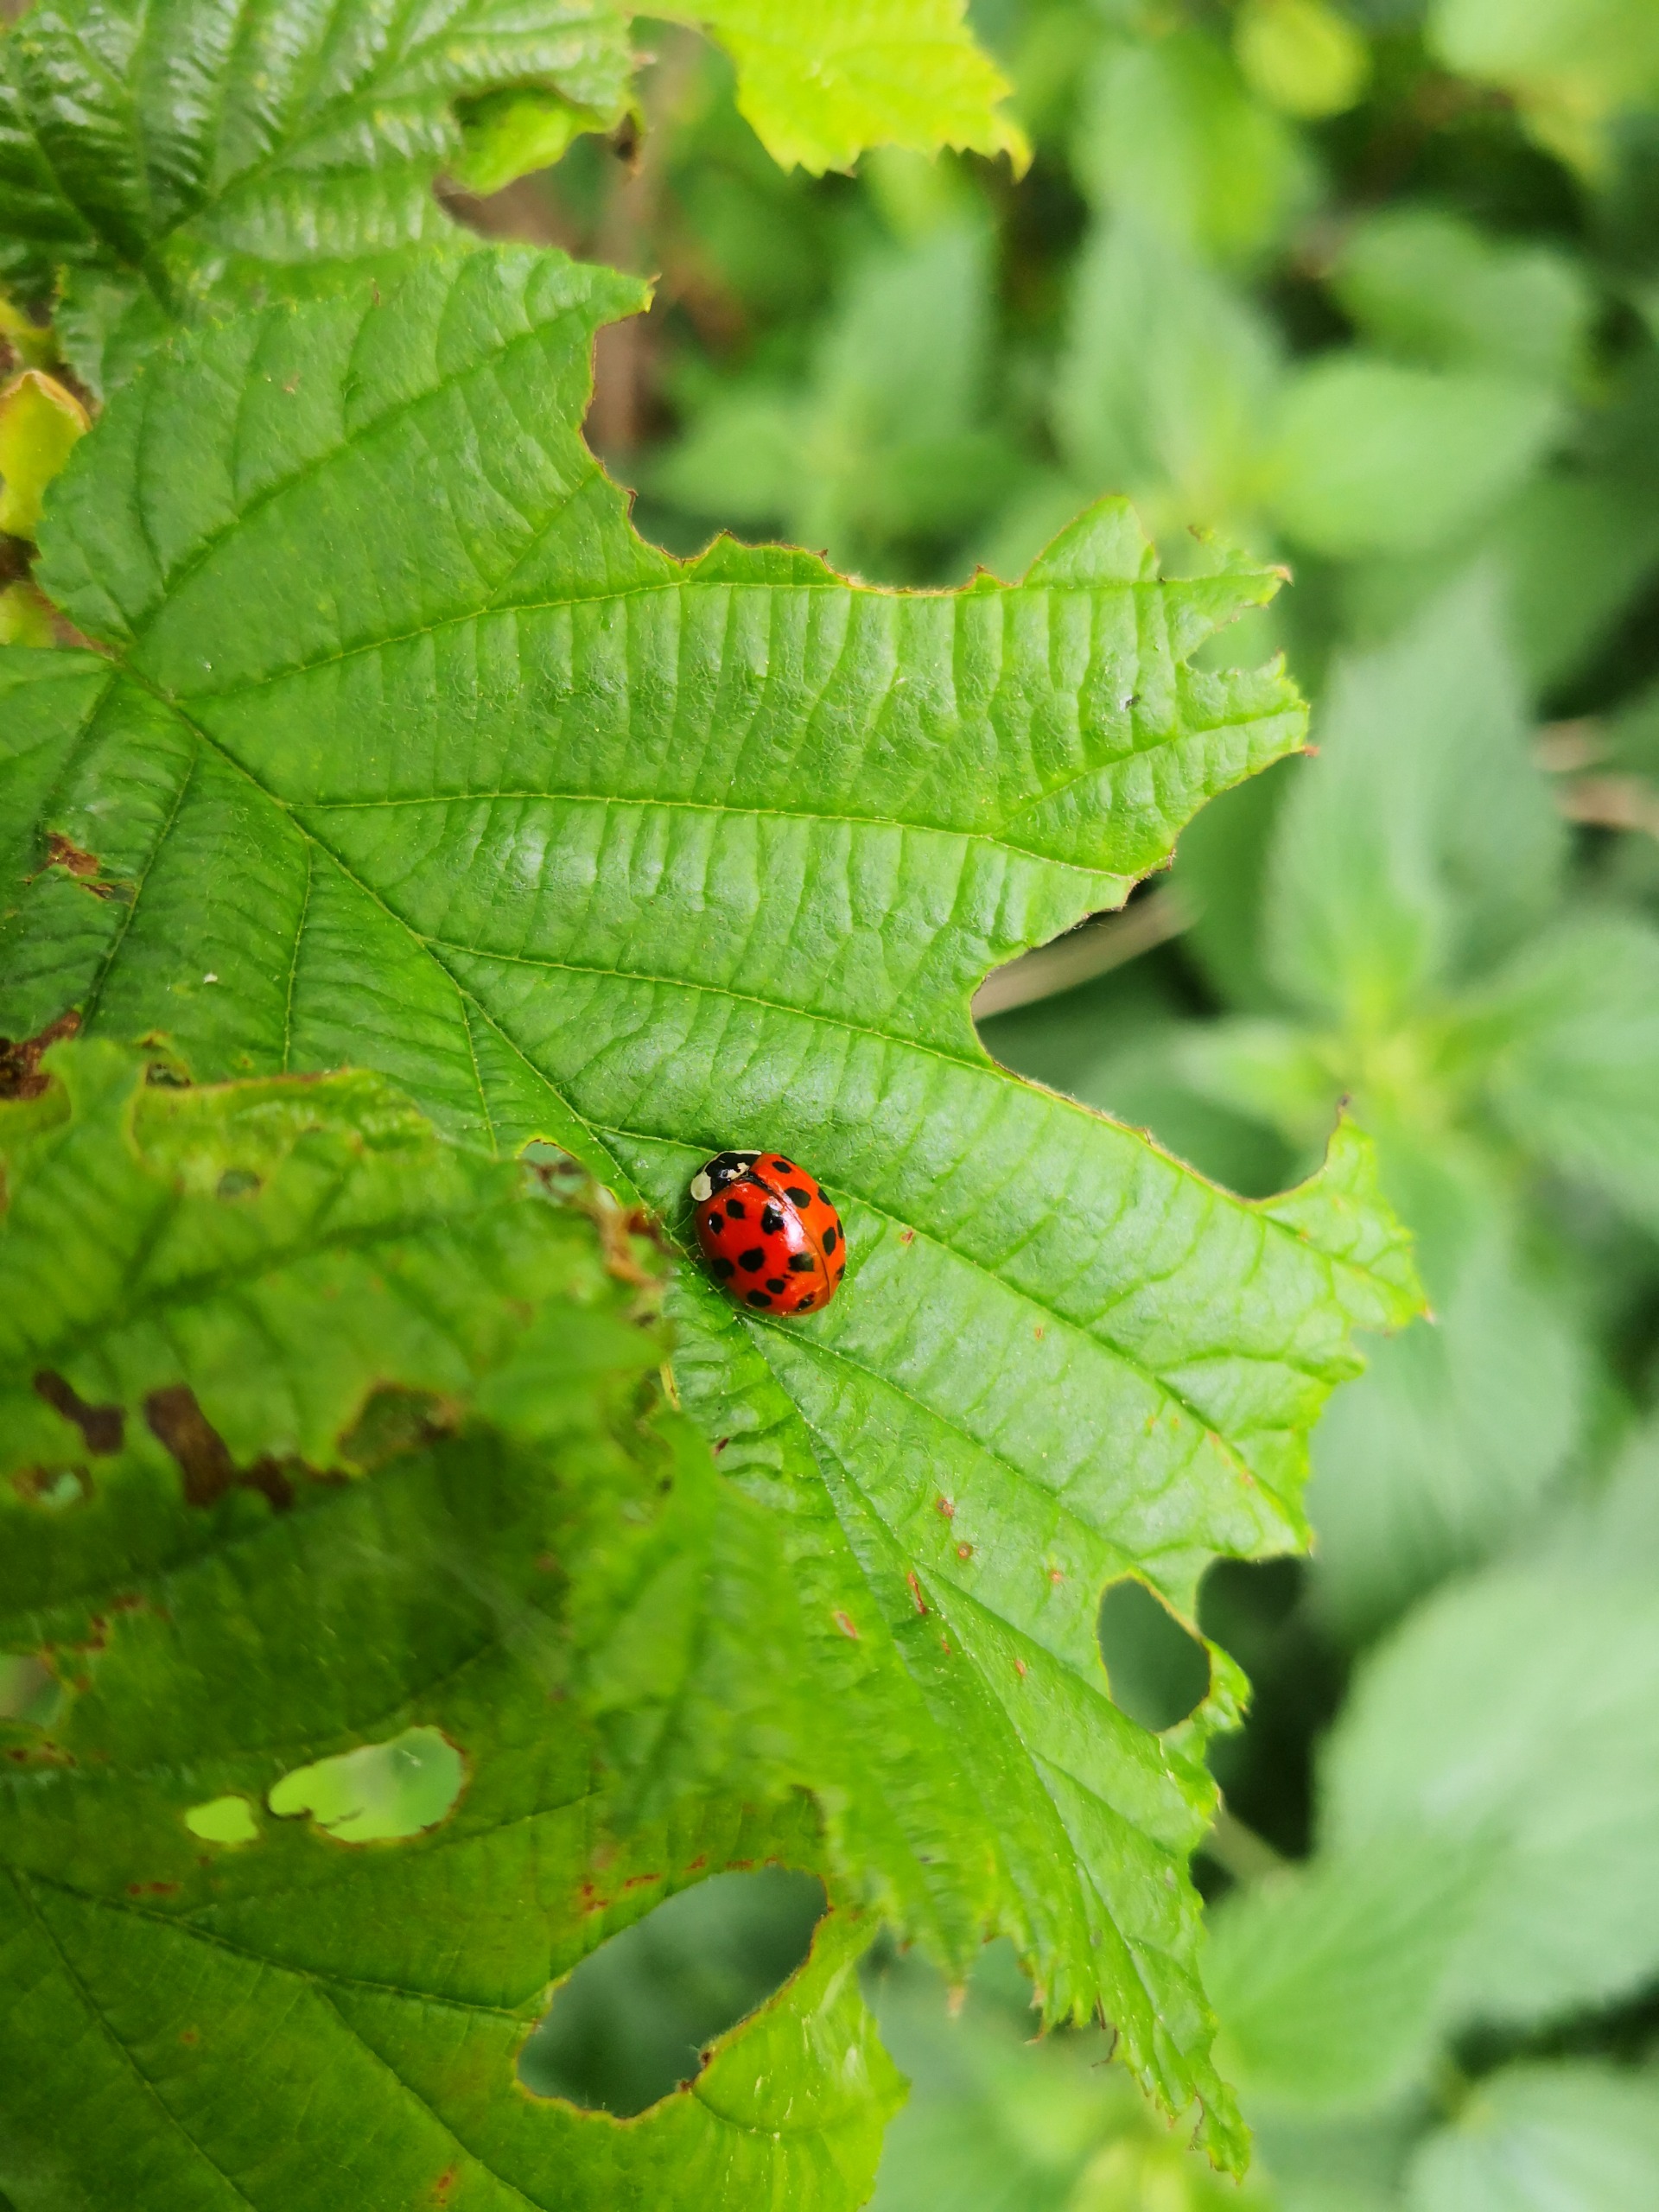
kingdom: Animalia
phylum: Arthropoda
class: Insecta
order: Coleoptera
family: Coccinellidae
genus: Harmonia
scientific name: Harmonia axyridis
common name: Harlekinmariehøne
